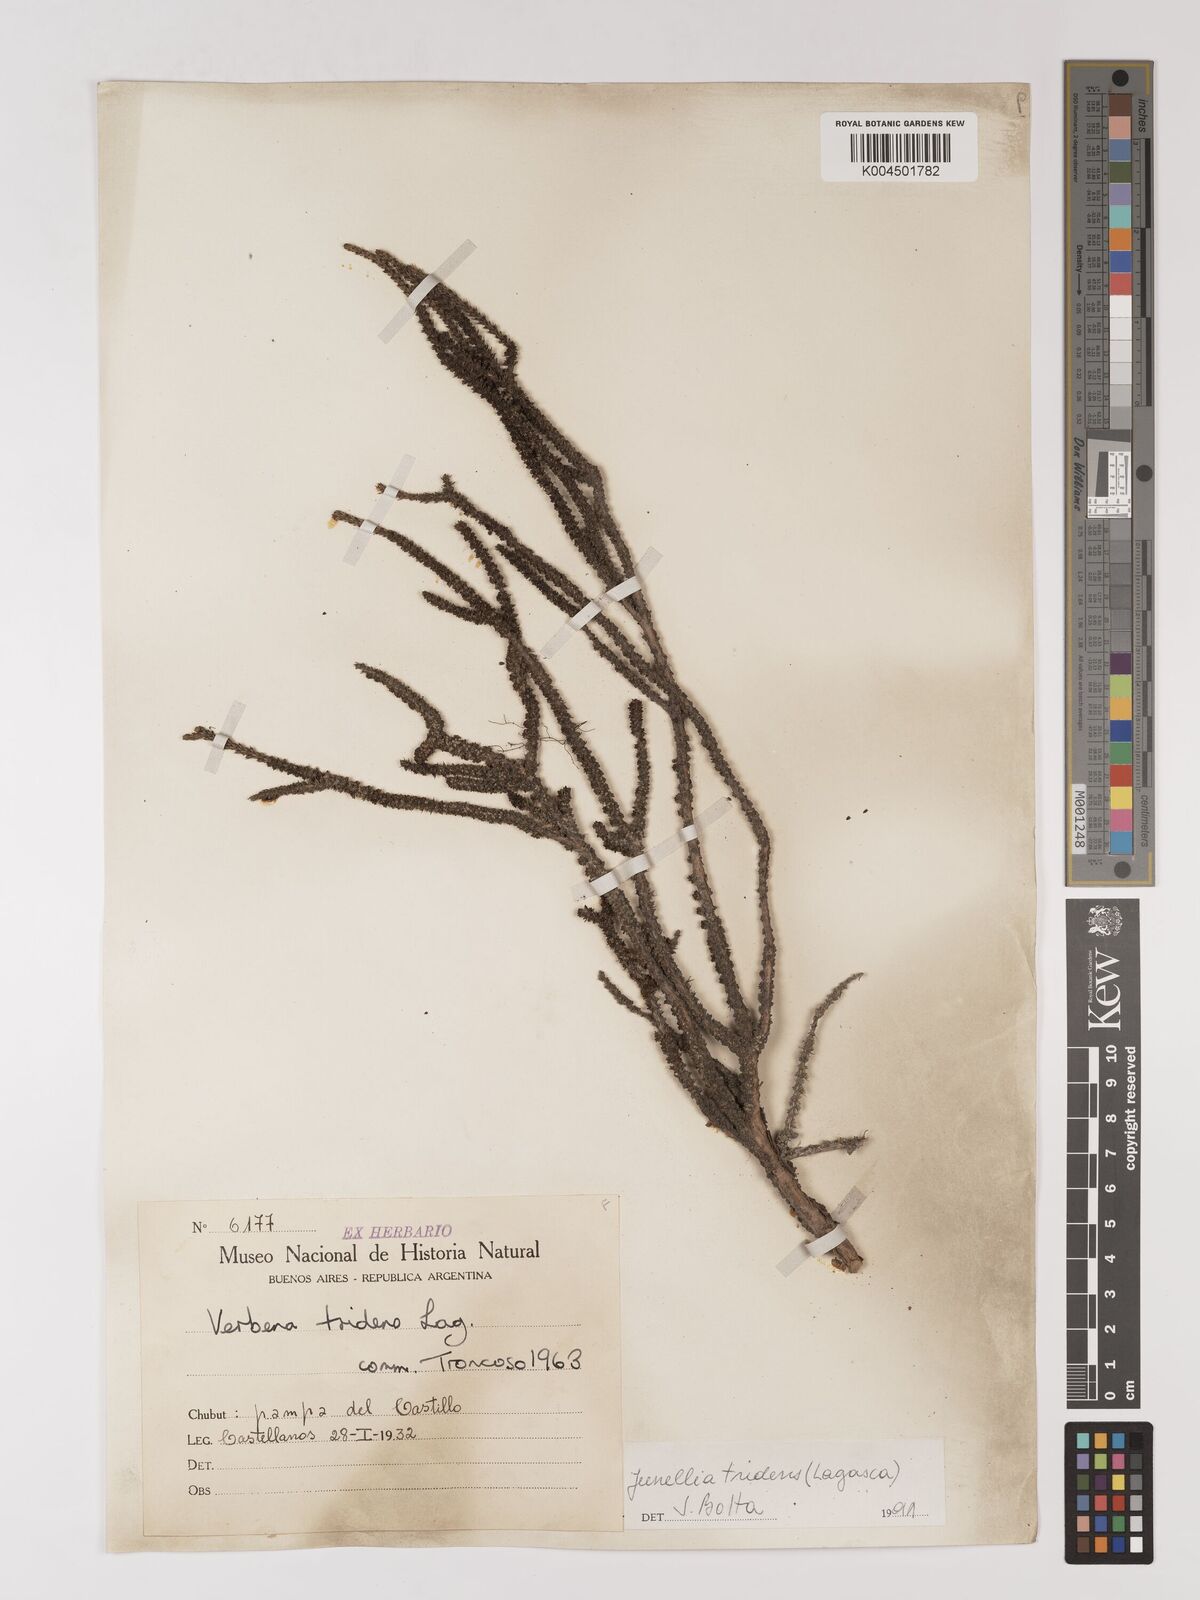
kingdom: Plantae
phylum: Tracheophyta
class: Magnoliopsida
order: Lamiales
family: Verbenaceae
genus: Mulguraea
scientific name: Mulguraea tridens
